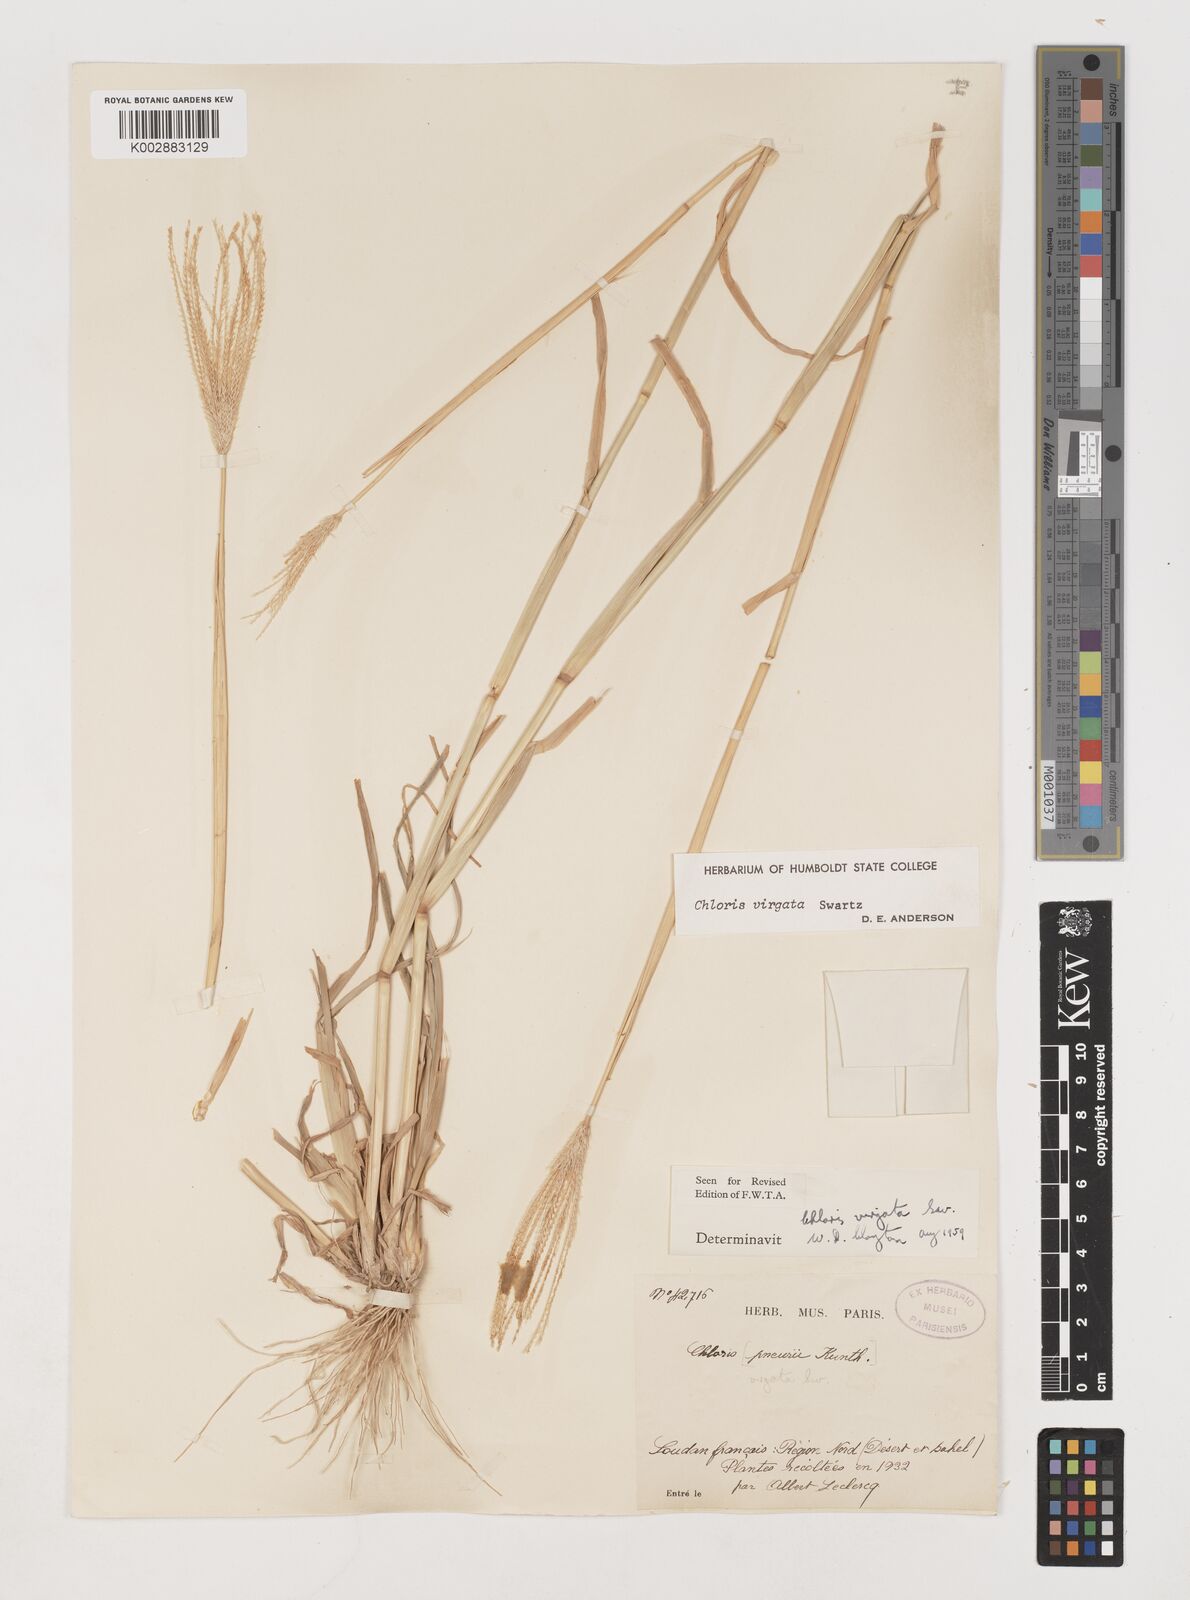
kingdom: Plantae
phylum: Tracheophyta
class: Liliopsida
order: Poales
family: Poaceae
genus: Chloris
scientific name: Chloris virgata
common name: Feathery rhodes-grass
